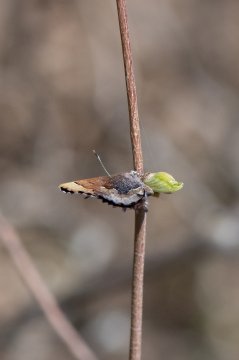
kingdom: Animalia
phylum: Arthropoda
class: Insecta
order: Lepidoptera
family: Lycaenidae
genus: Incisalia
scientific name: Incisalia henrici
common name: Henry's Elfin
